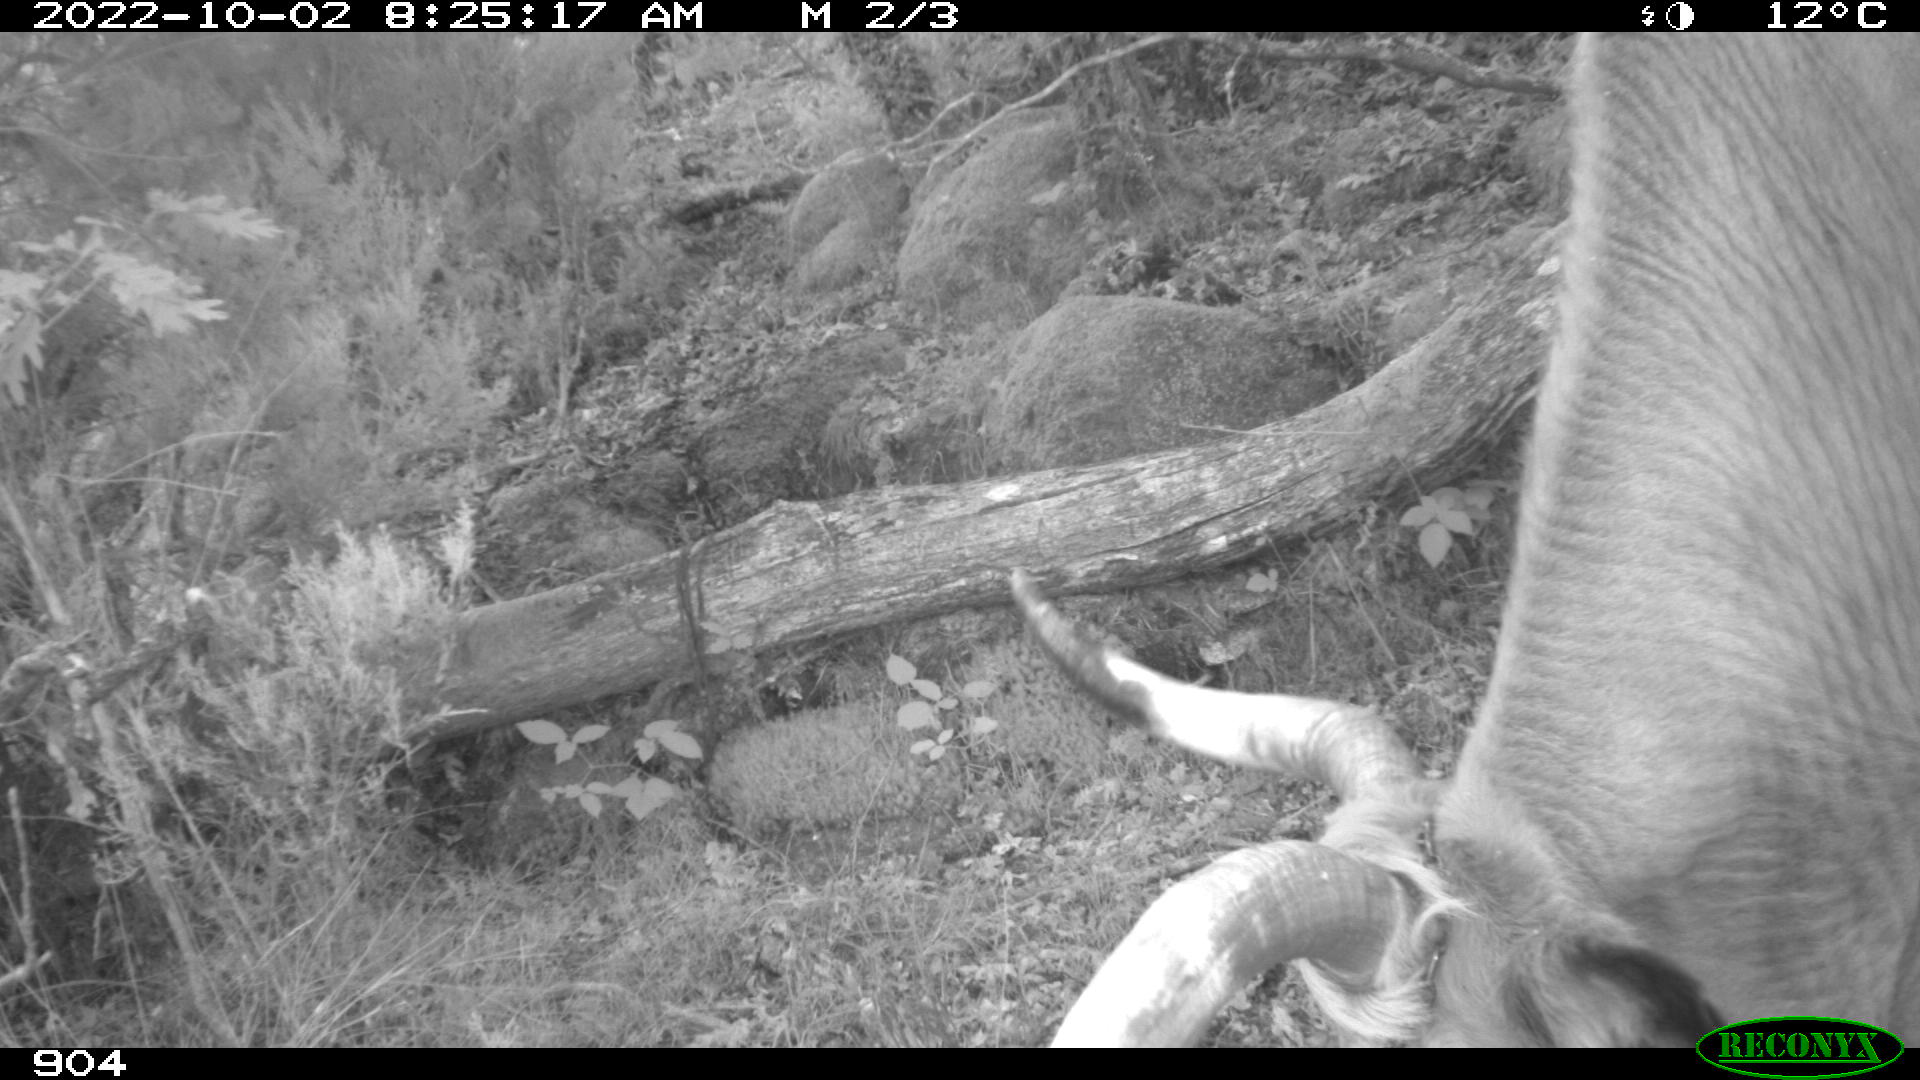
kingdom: Animalia
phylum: Chordata
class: Mammalia
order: Artiodactyla
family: Bovidae
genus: Bos
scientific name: Bos taurus
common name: Domesticated cattle
